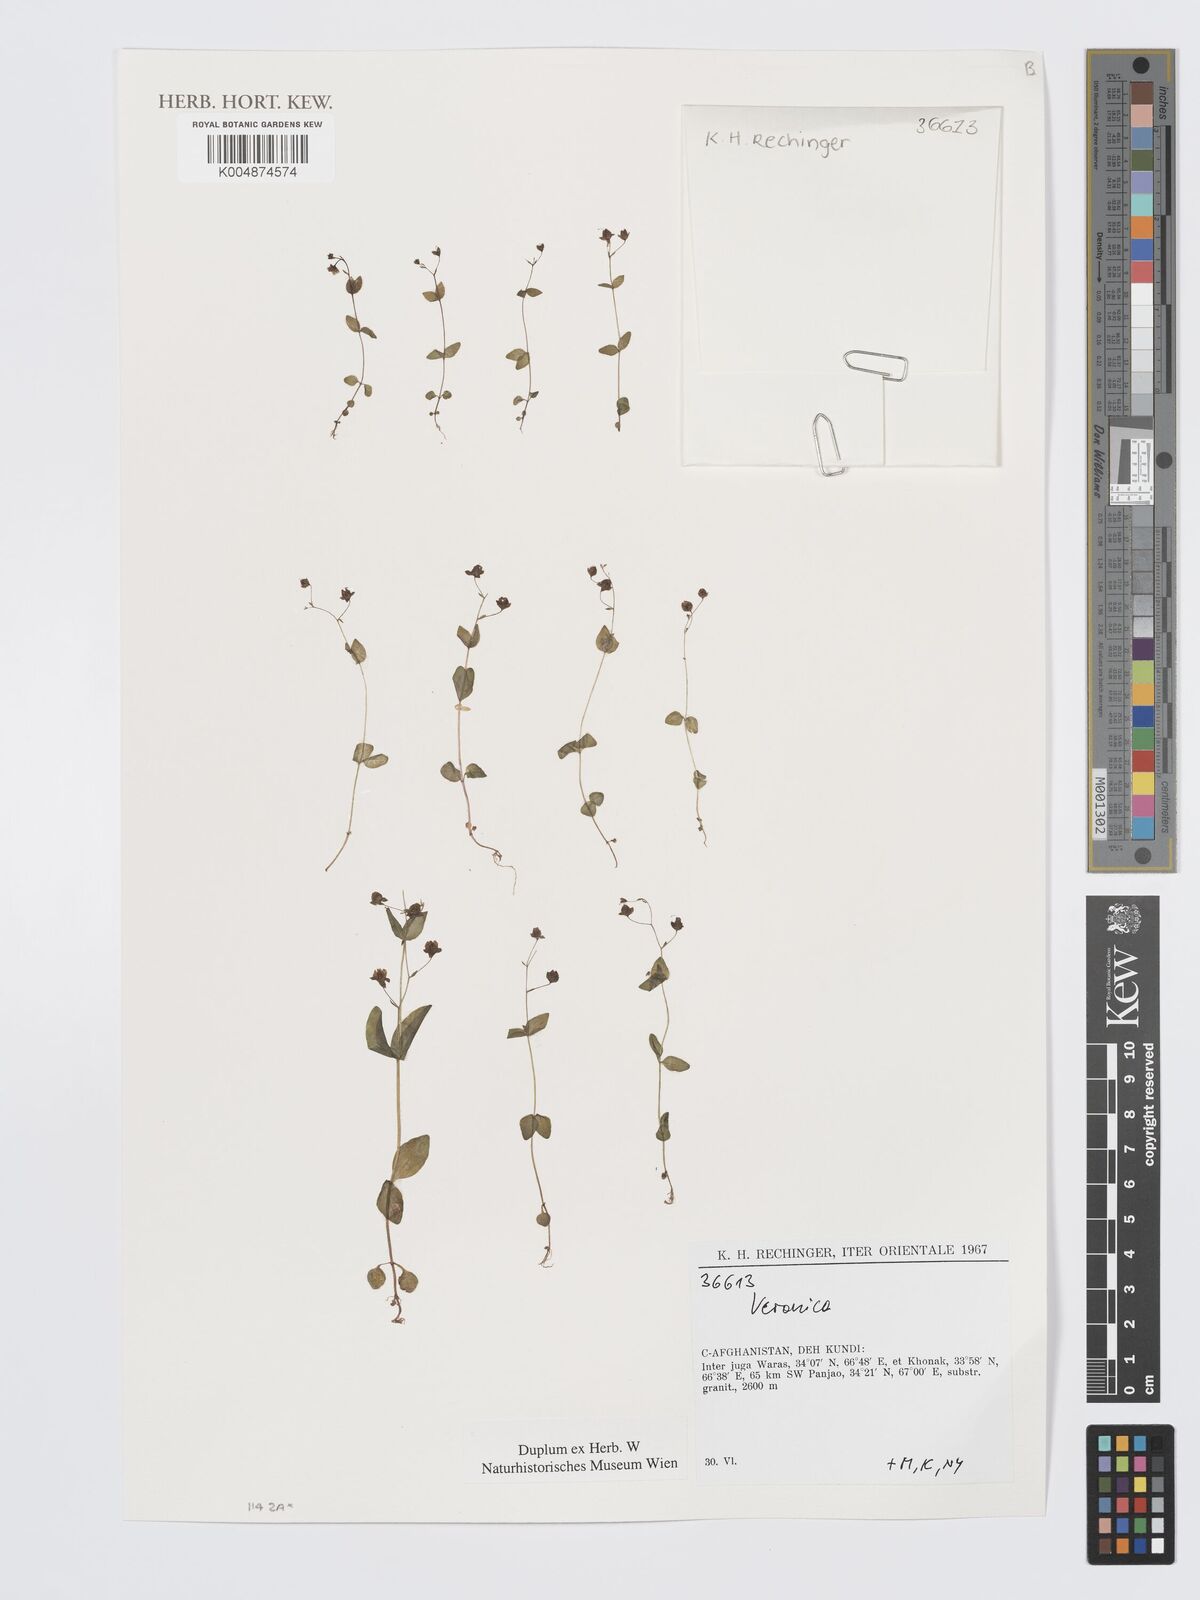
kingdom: Plantae
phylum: Tracheophyta
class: Magnoliopsida
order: Lamiales
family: Plantaginaceae
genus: Veronica
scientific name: Veronica
